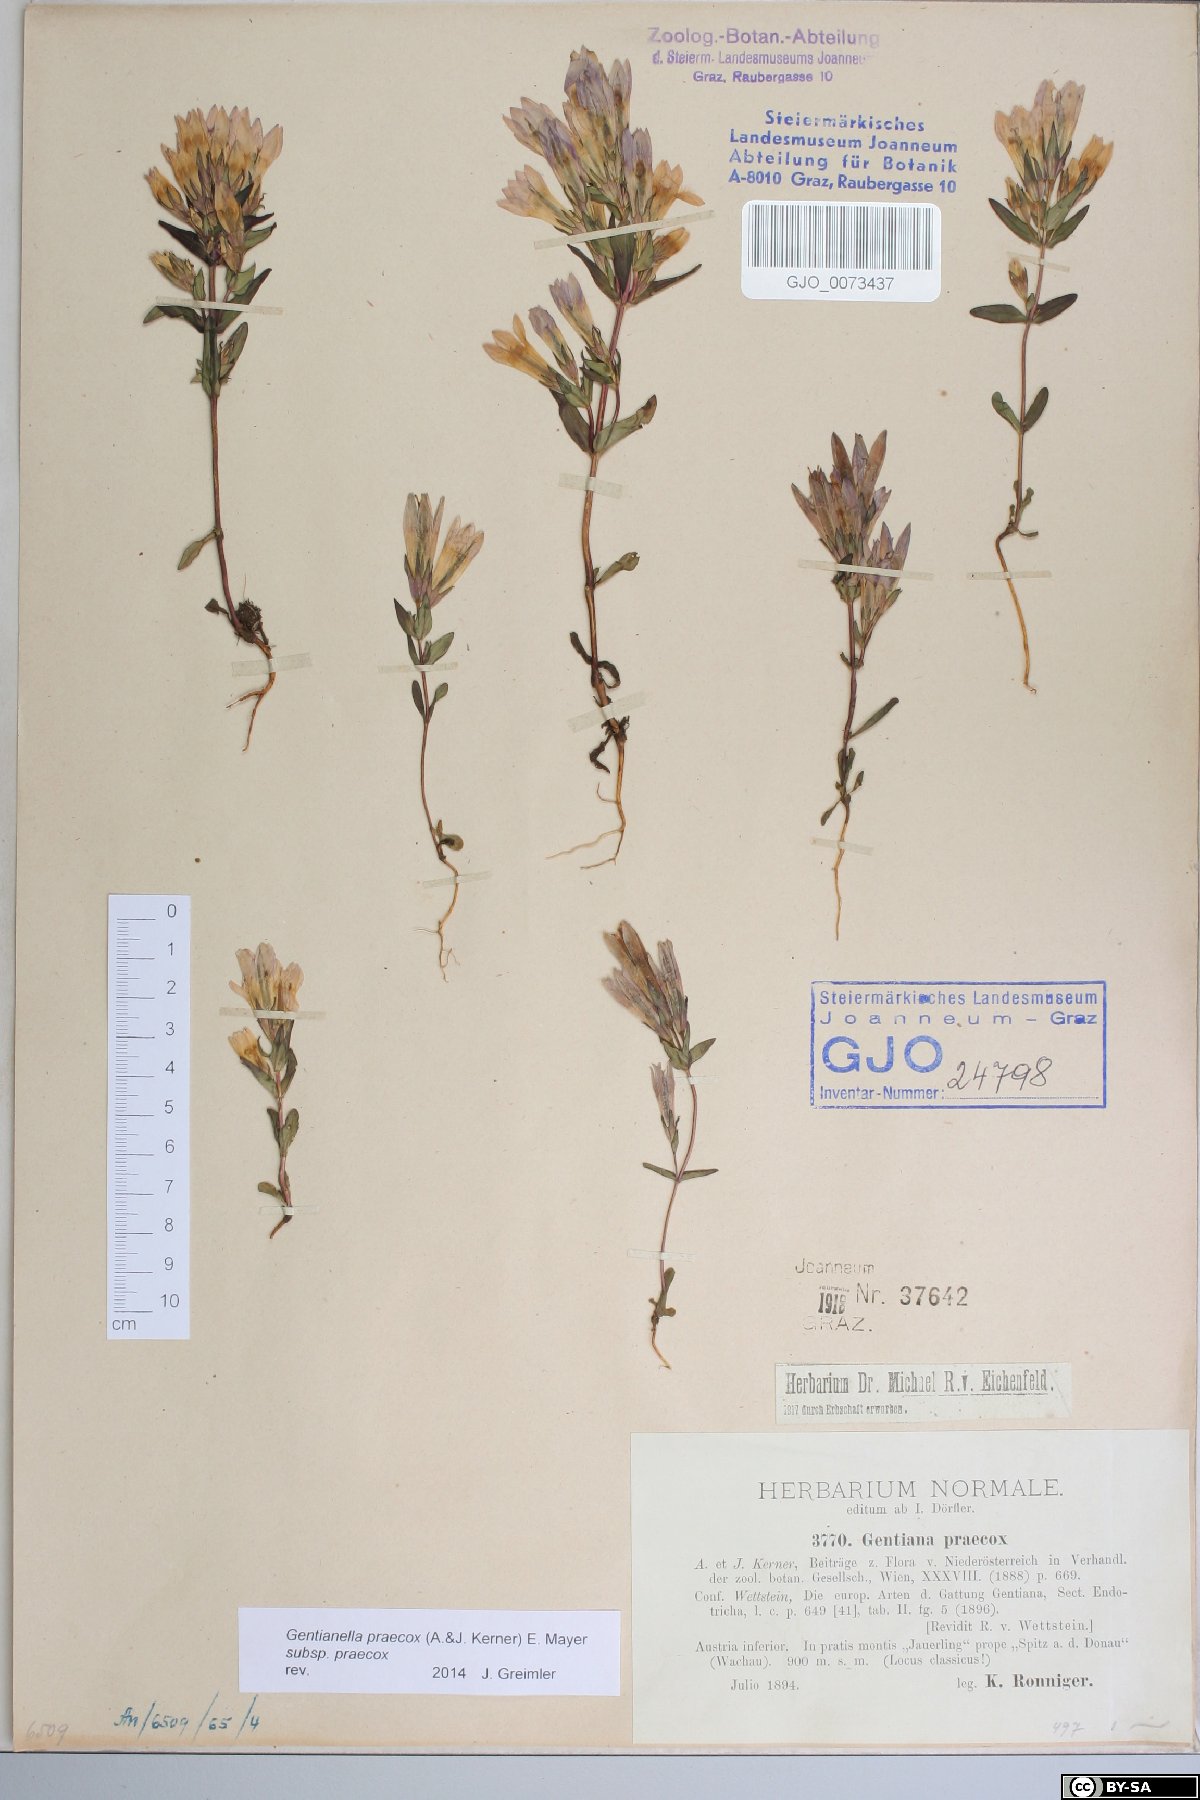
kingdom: Plantae
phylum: Tracheophyta
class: Magnoliopsida
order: Gentianales
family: Gentianaceae
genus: Gentianella
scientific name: Gentianella praecox
